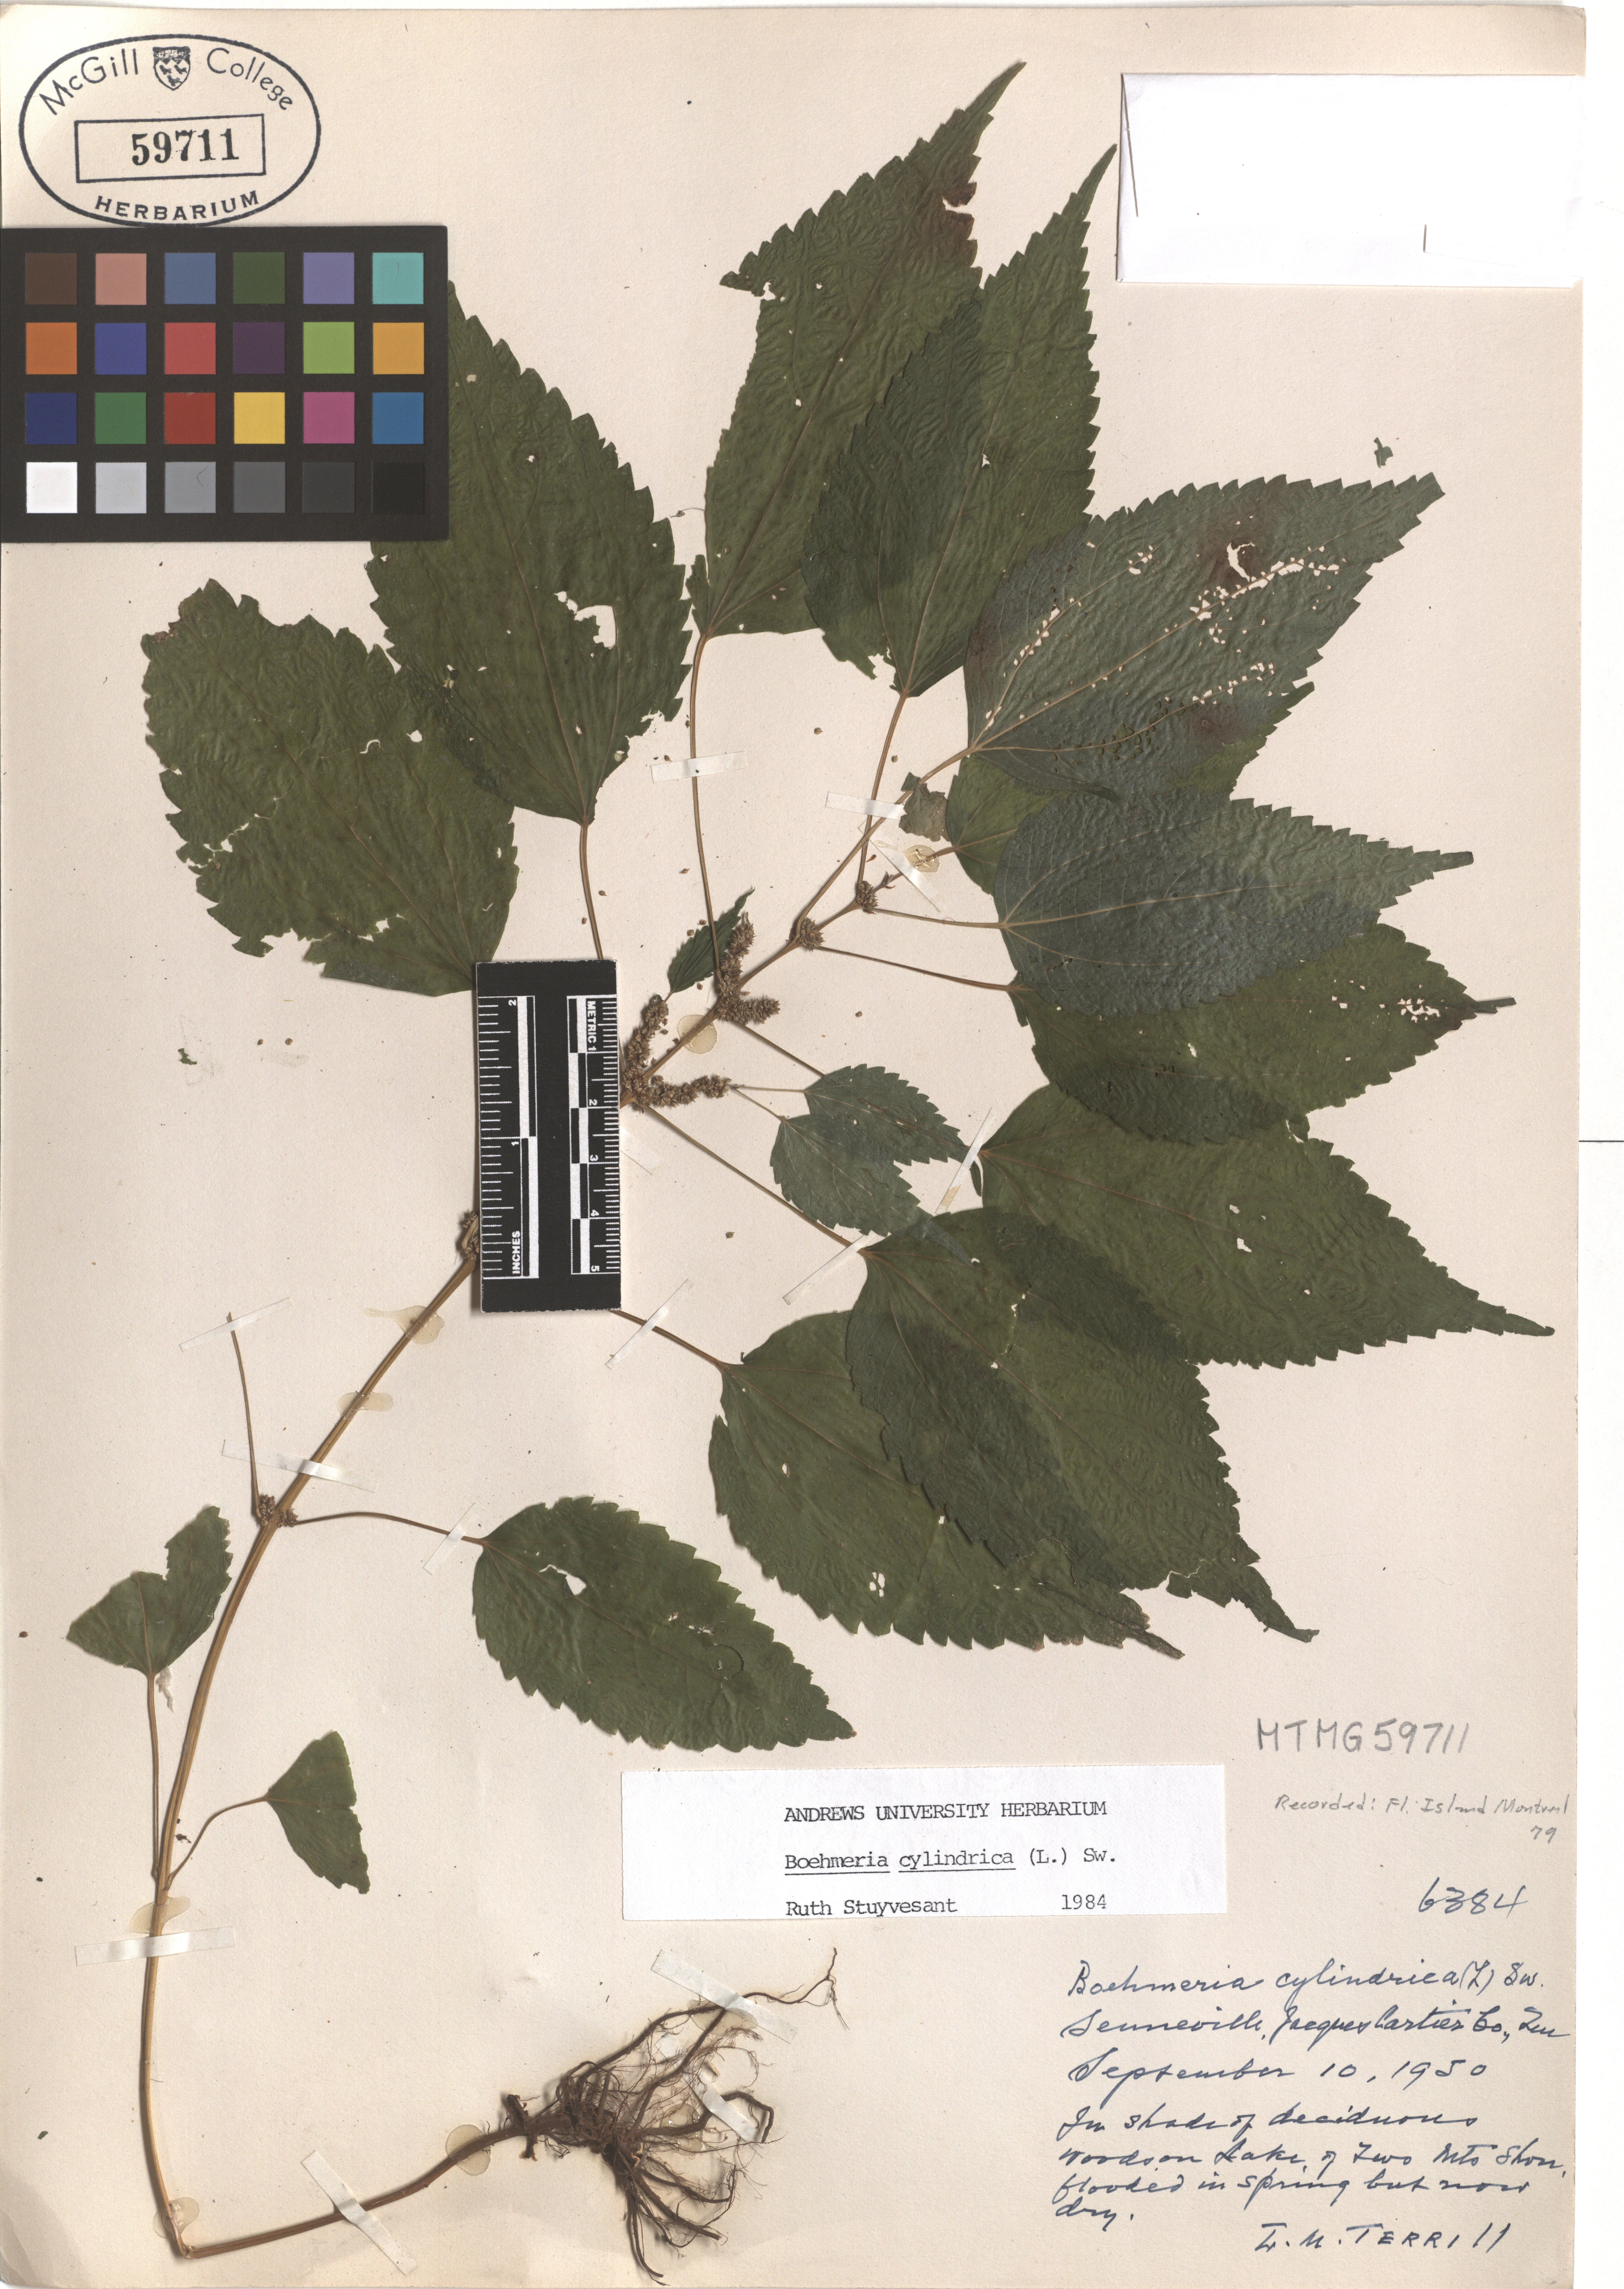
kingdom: Plantae
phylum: Tracheophyta
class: Magnoliopsida
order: Rosales
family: Urticaceae
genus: Boehmeria
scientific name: Boehmeria cylindrica
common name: Bog-hemp
